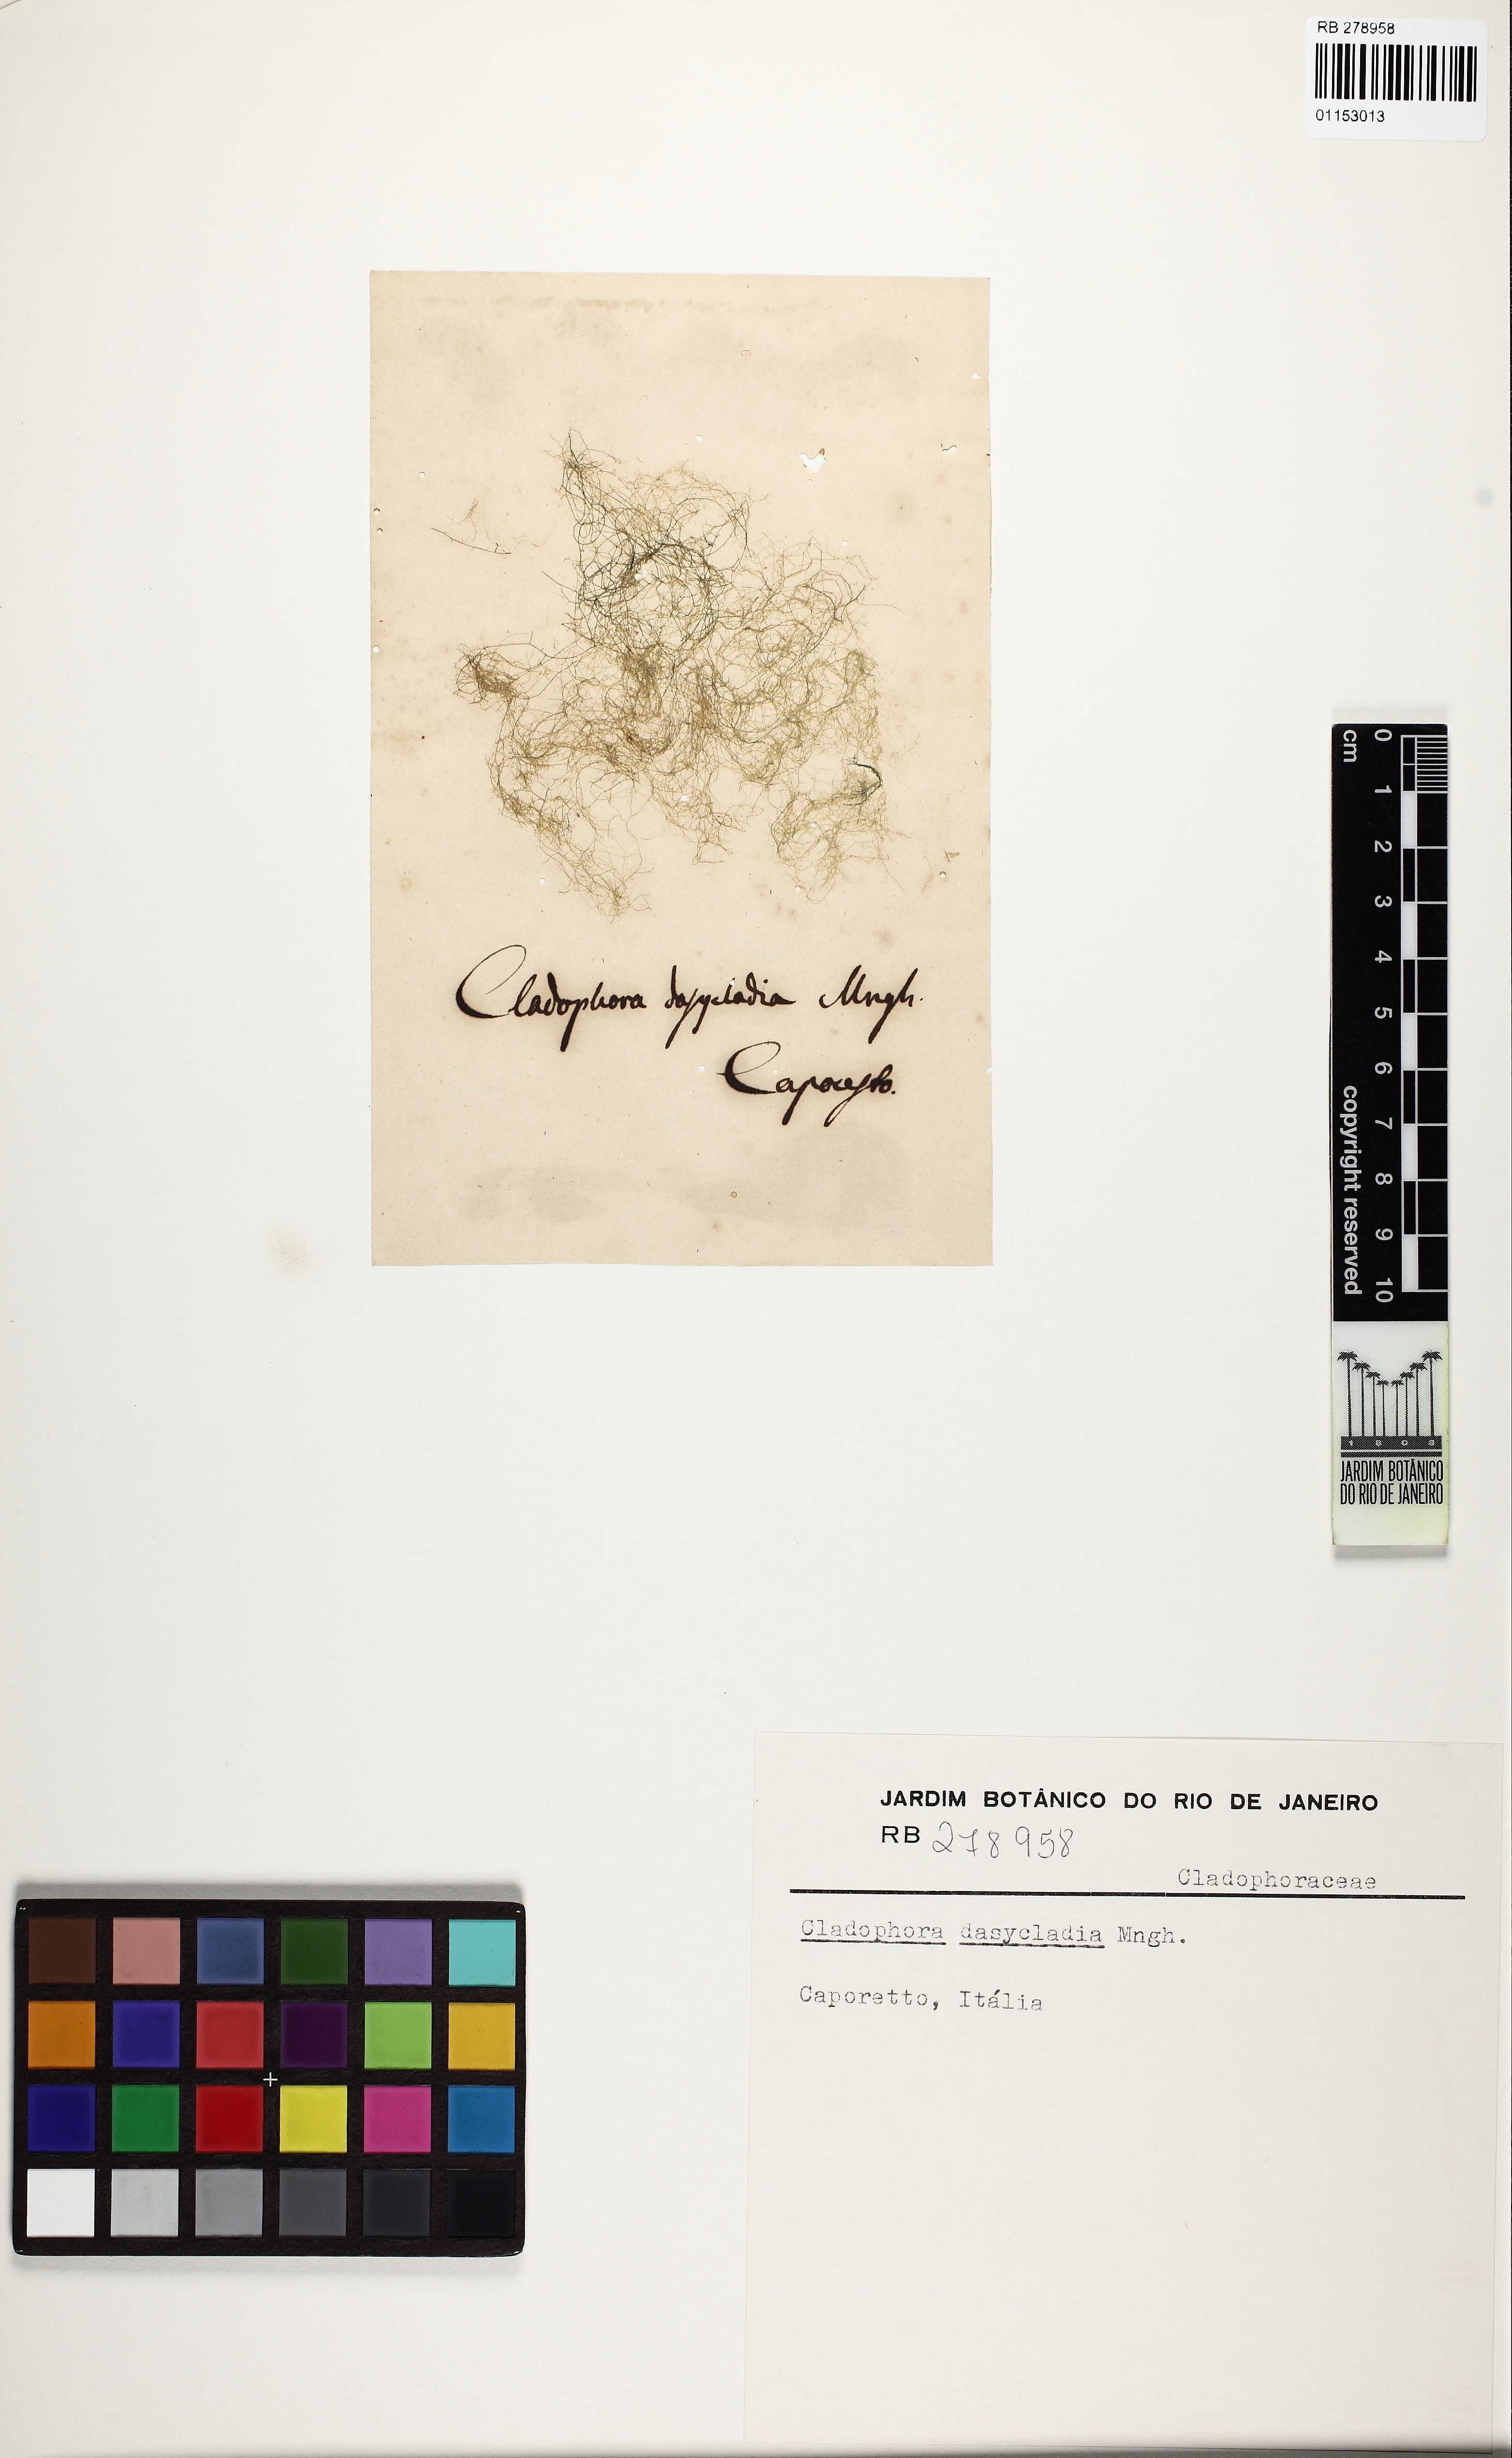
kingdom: Plantae
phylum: Chlorophyta
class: Ulvophyceae
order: Cladophorales
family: Cladophoraceae
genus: Cladophora
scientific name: Cladophora
